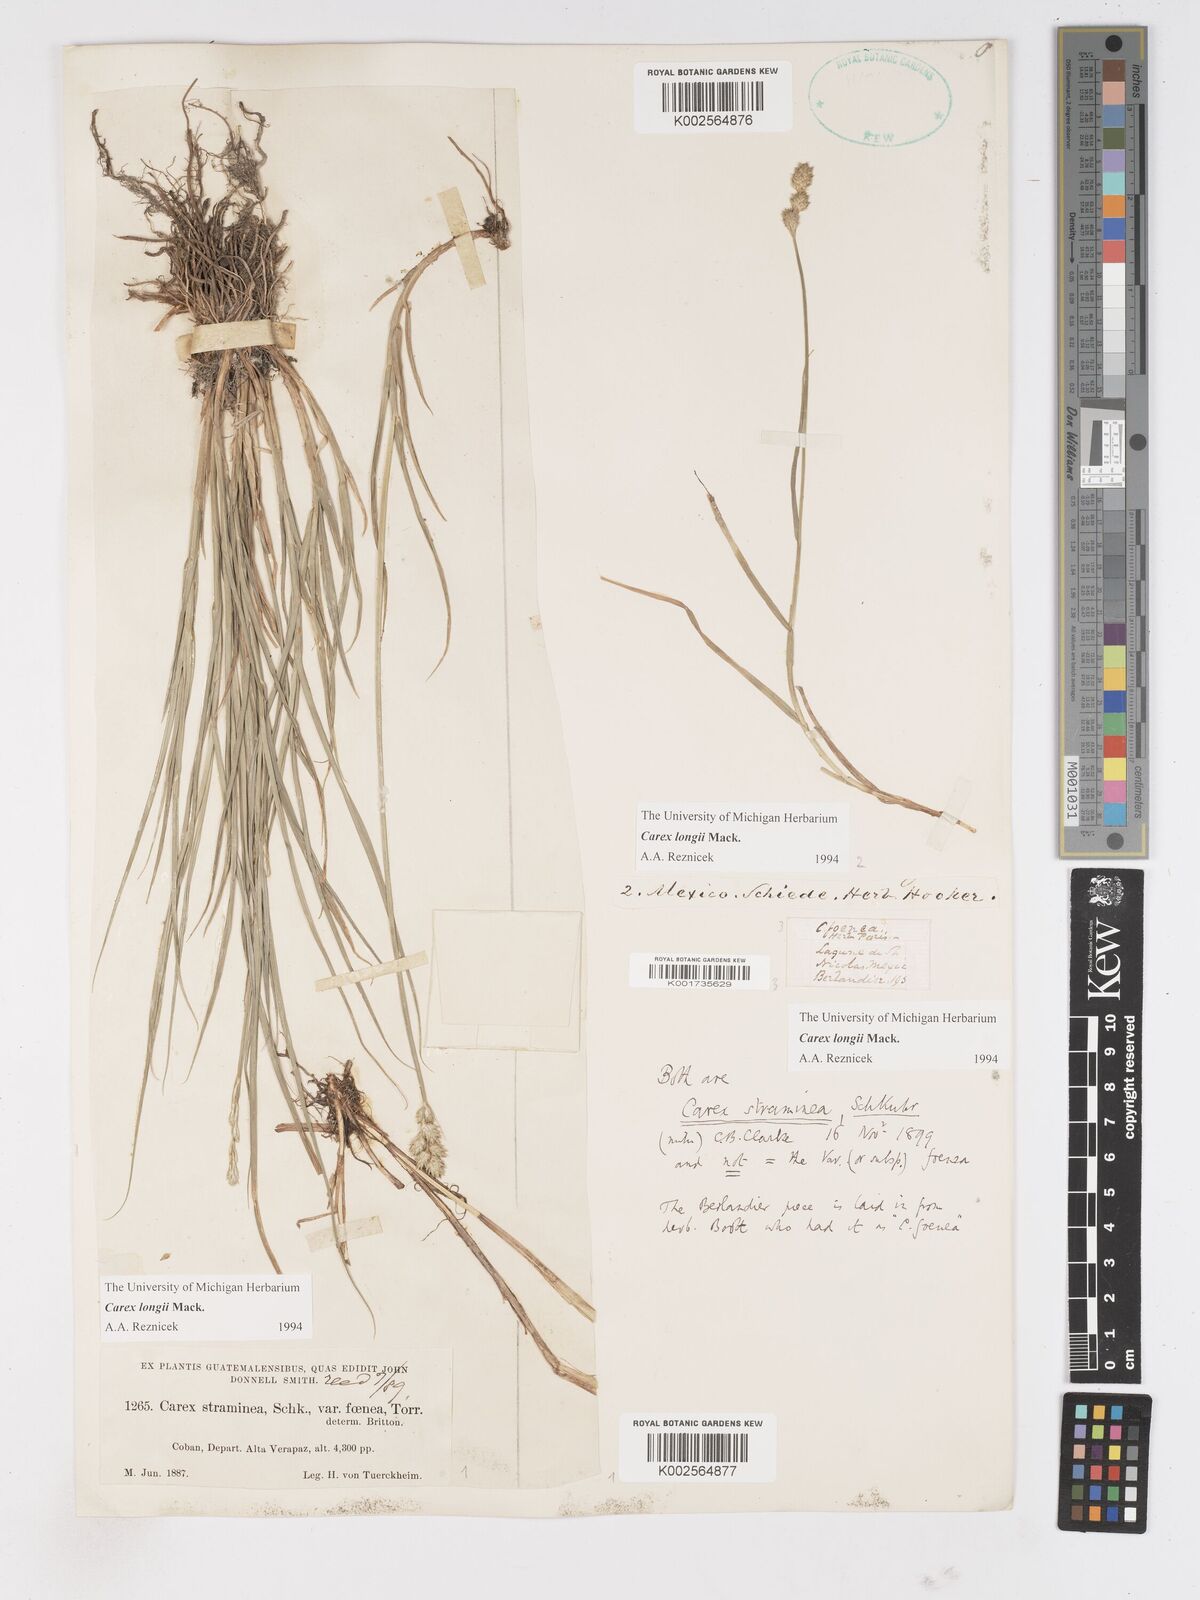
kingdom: Plantae
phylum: Tracheophyta
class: Liliopsida
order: Poales
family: Cyperaceae
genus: Carex
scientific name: Carex longii
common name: Long's sedge
